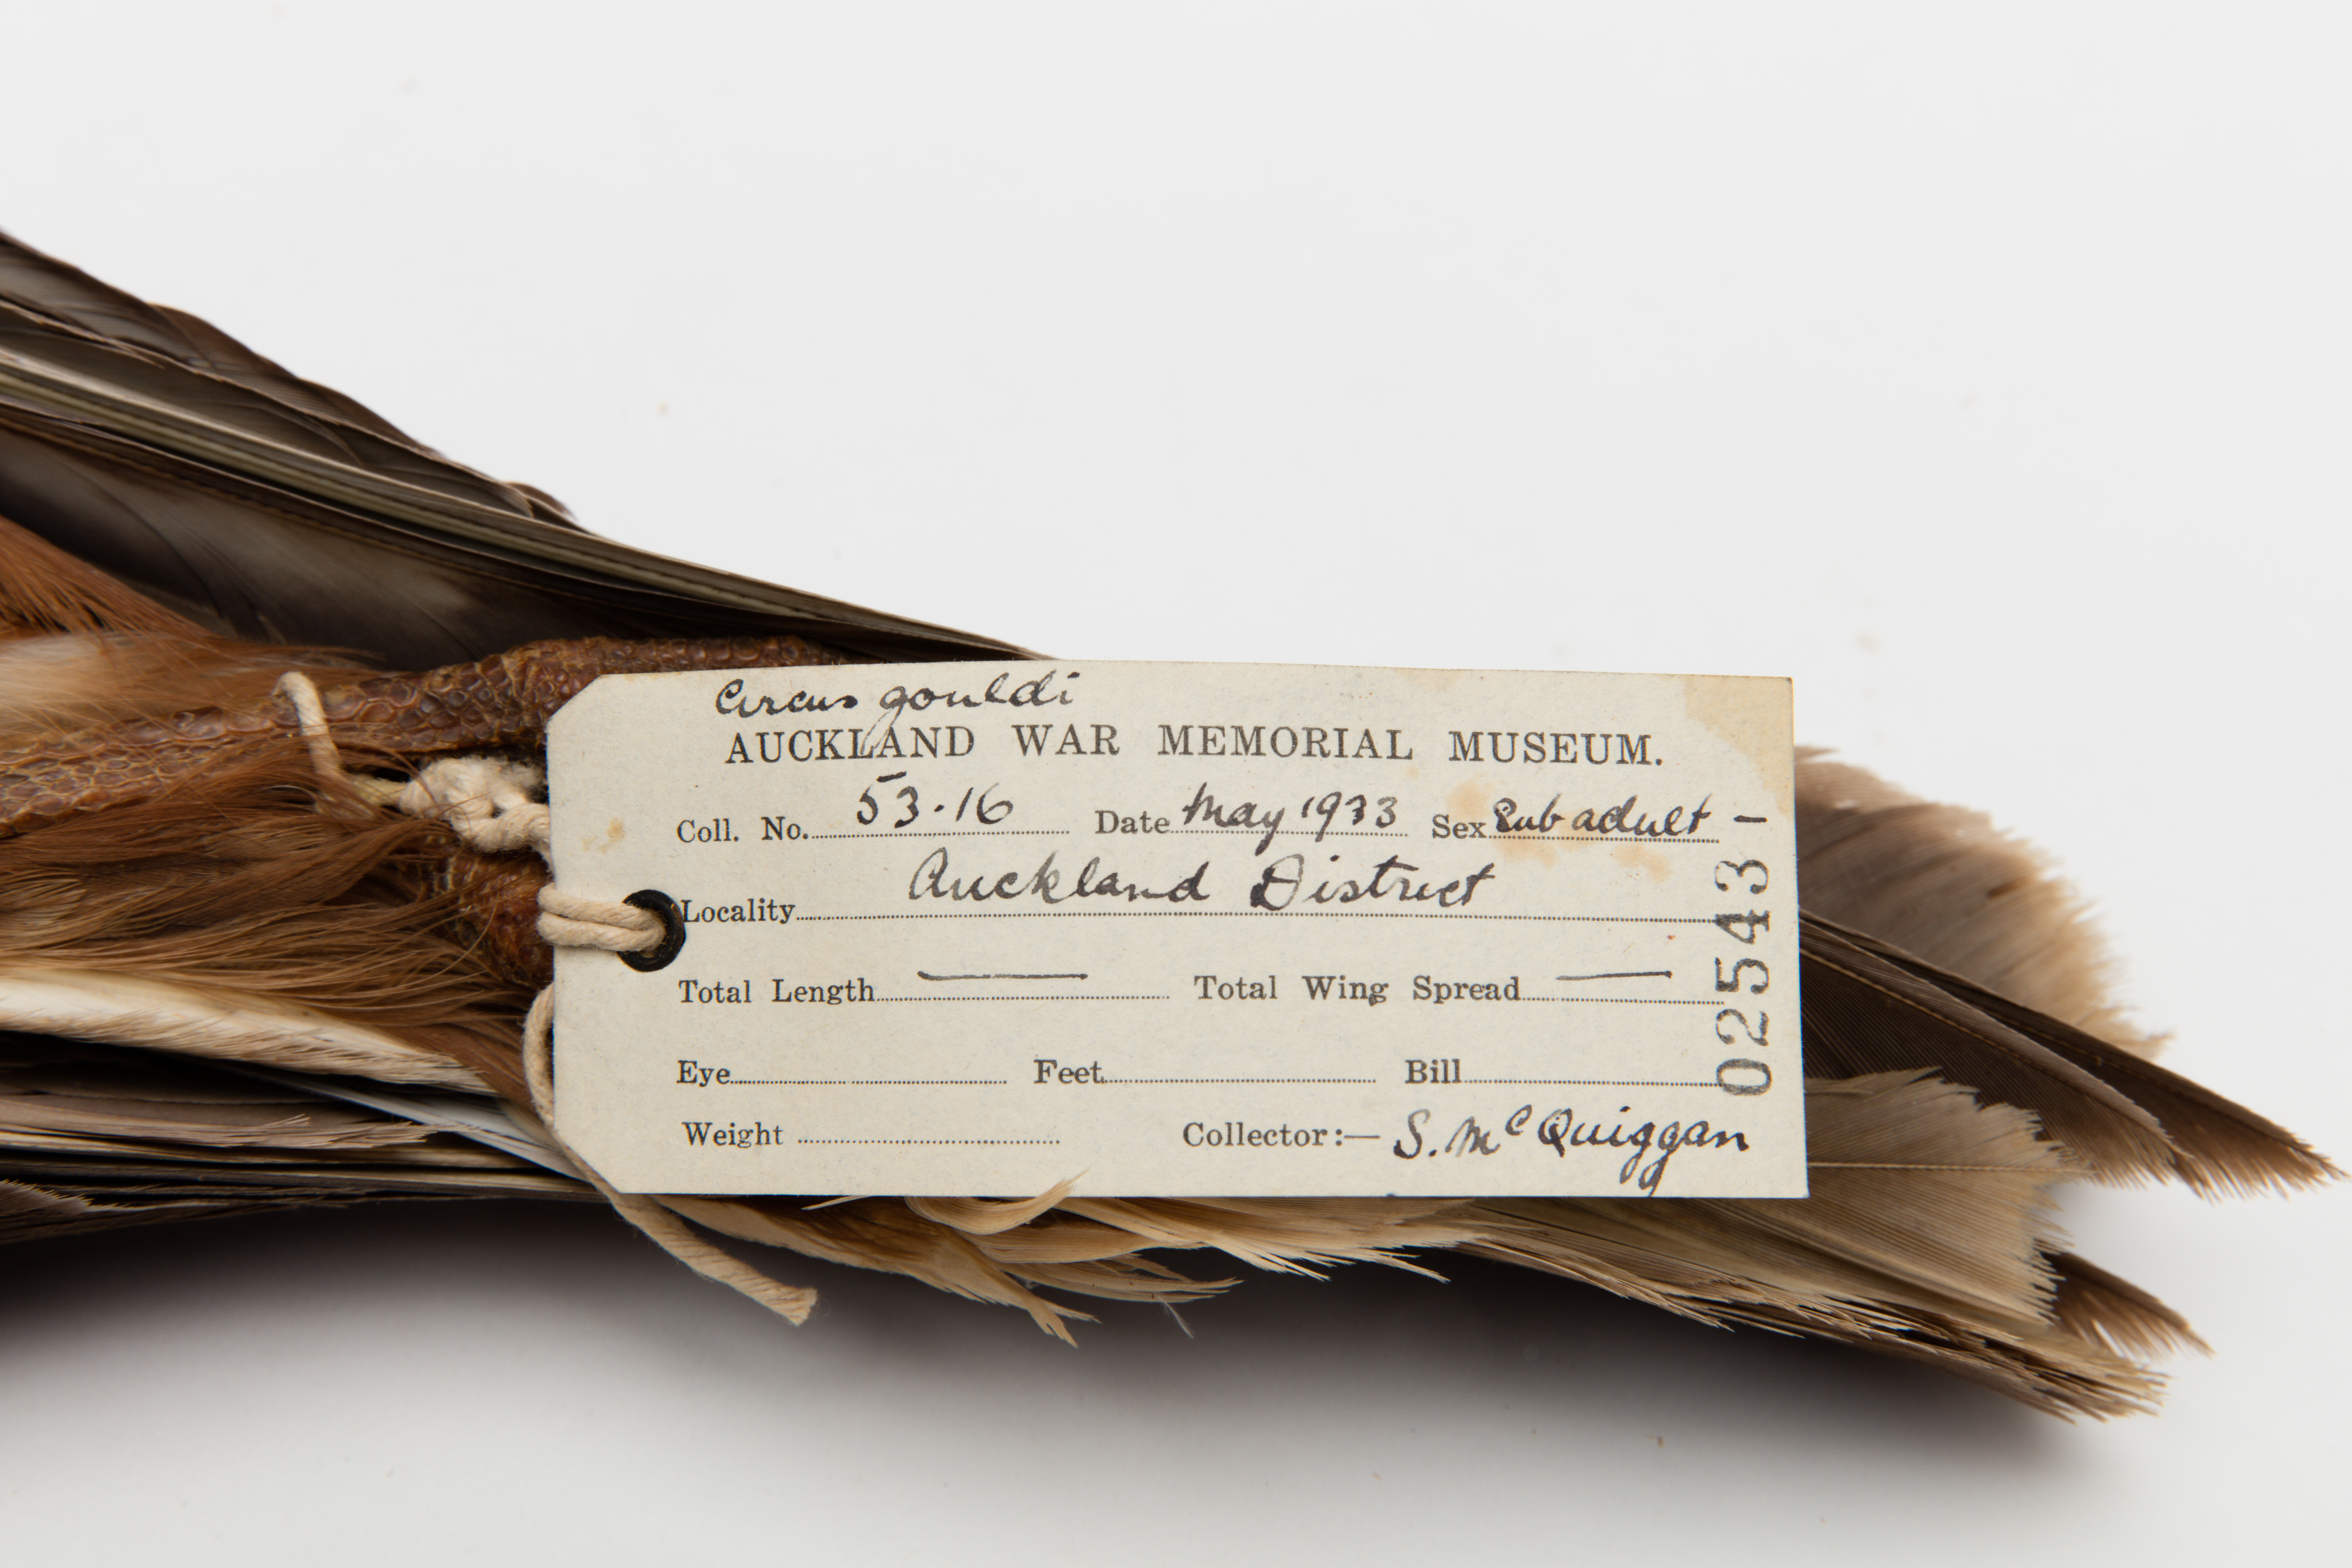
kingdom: Animalia
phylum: Chordata
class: Aves
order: Accipitriformes
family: Accipitridae
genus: Circus
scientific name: Circus approximans
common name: Swamp harrier
